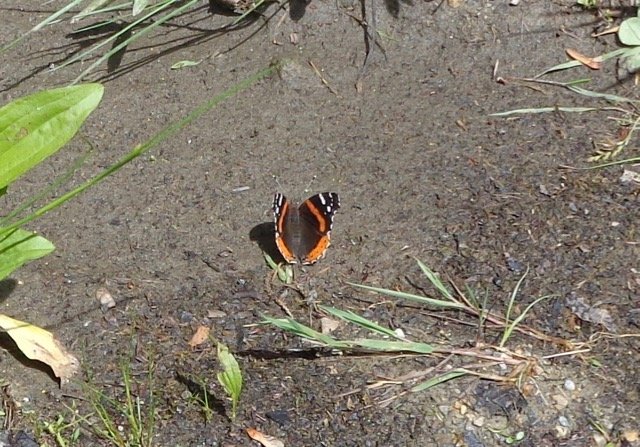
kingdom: Animalia
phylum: Arthropoda
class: Insecta
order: Lepidoptera
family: Nymphalidae
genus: Vanessa
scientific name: Vanessa atalanta
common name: Red Admiral
